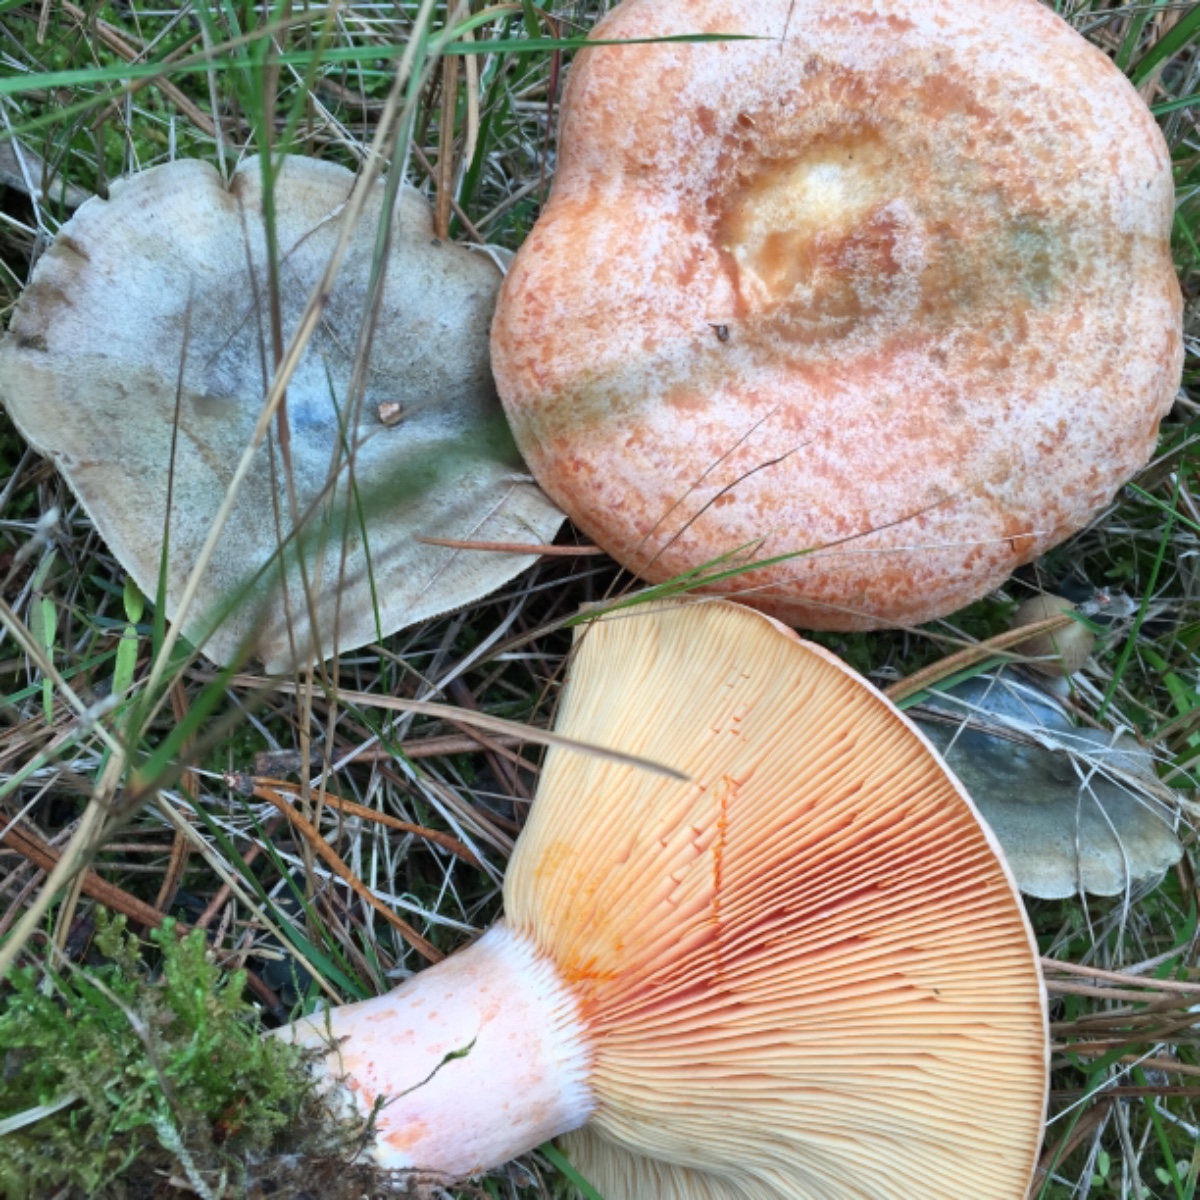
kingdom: Fungi
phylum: Basidiomycota
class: Agaricomycetes
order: Russulales
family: Russulaceae
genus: Lactarius
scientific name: Lactarius deliciosus
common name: velsmagende mælkehat
